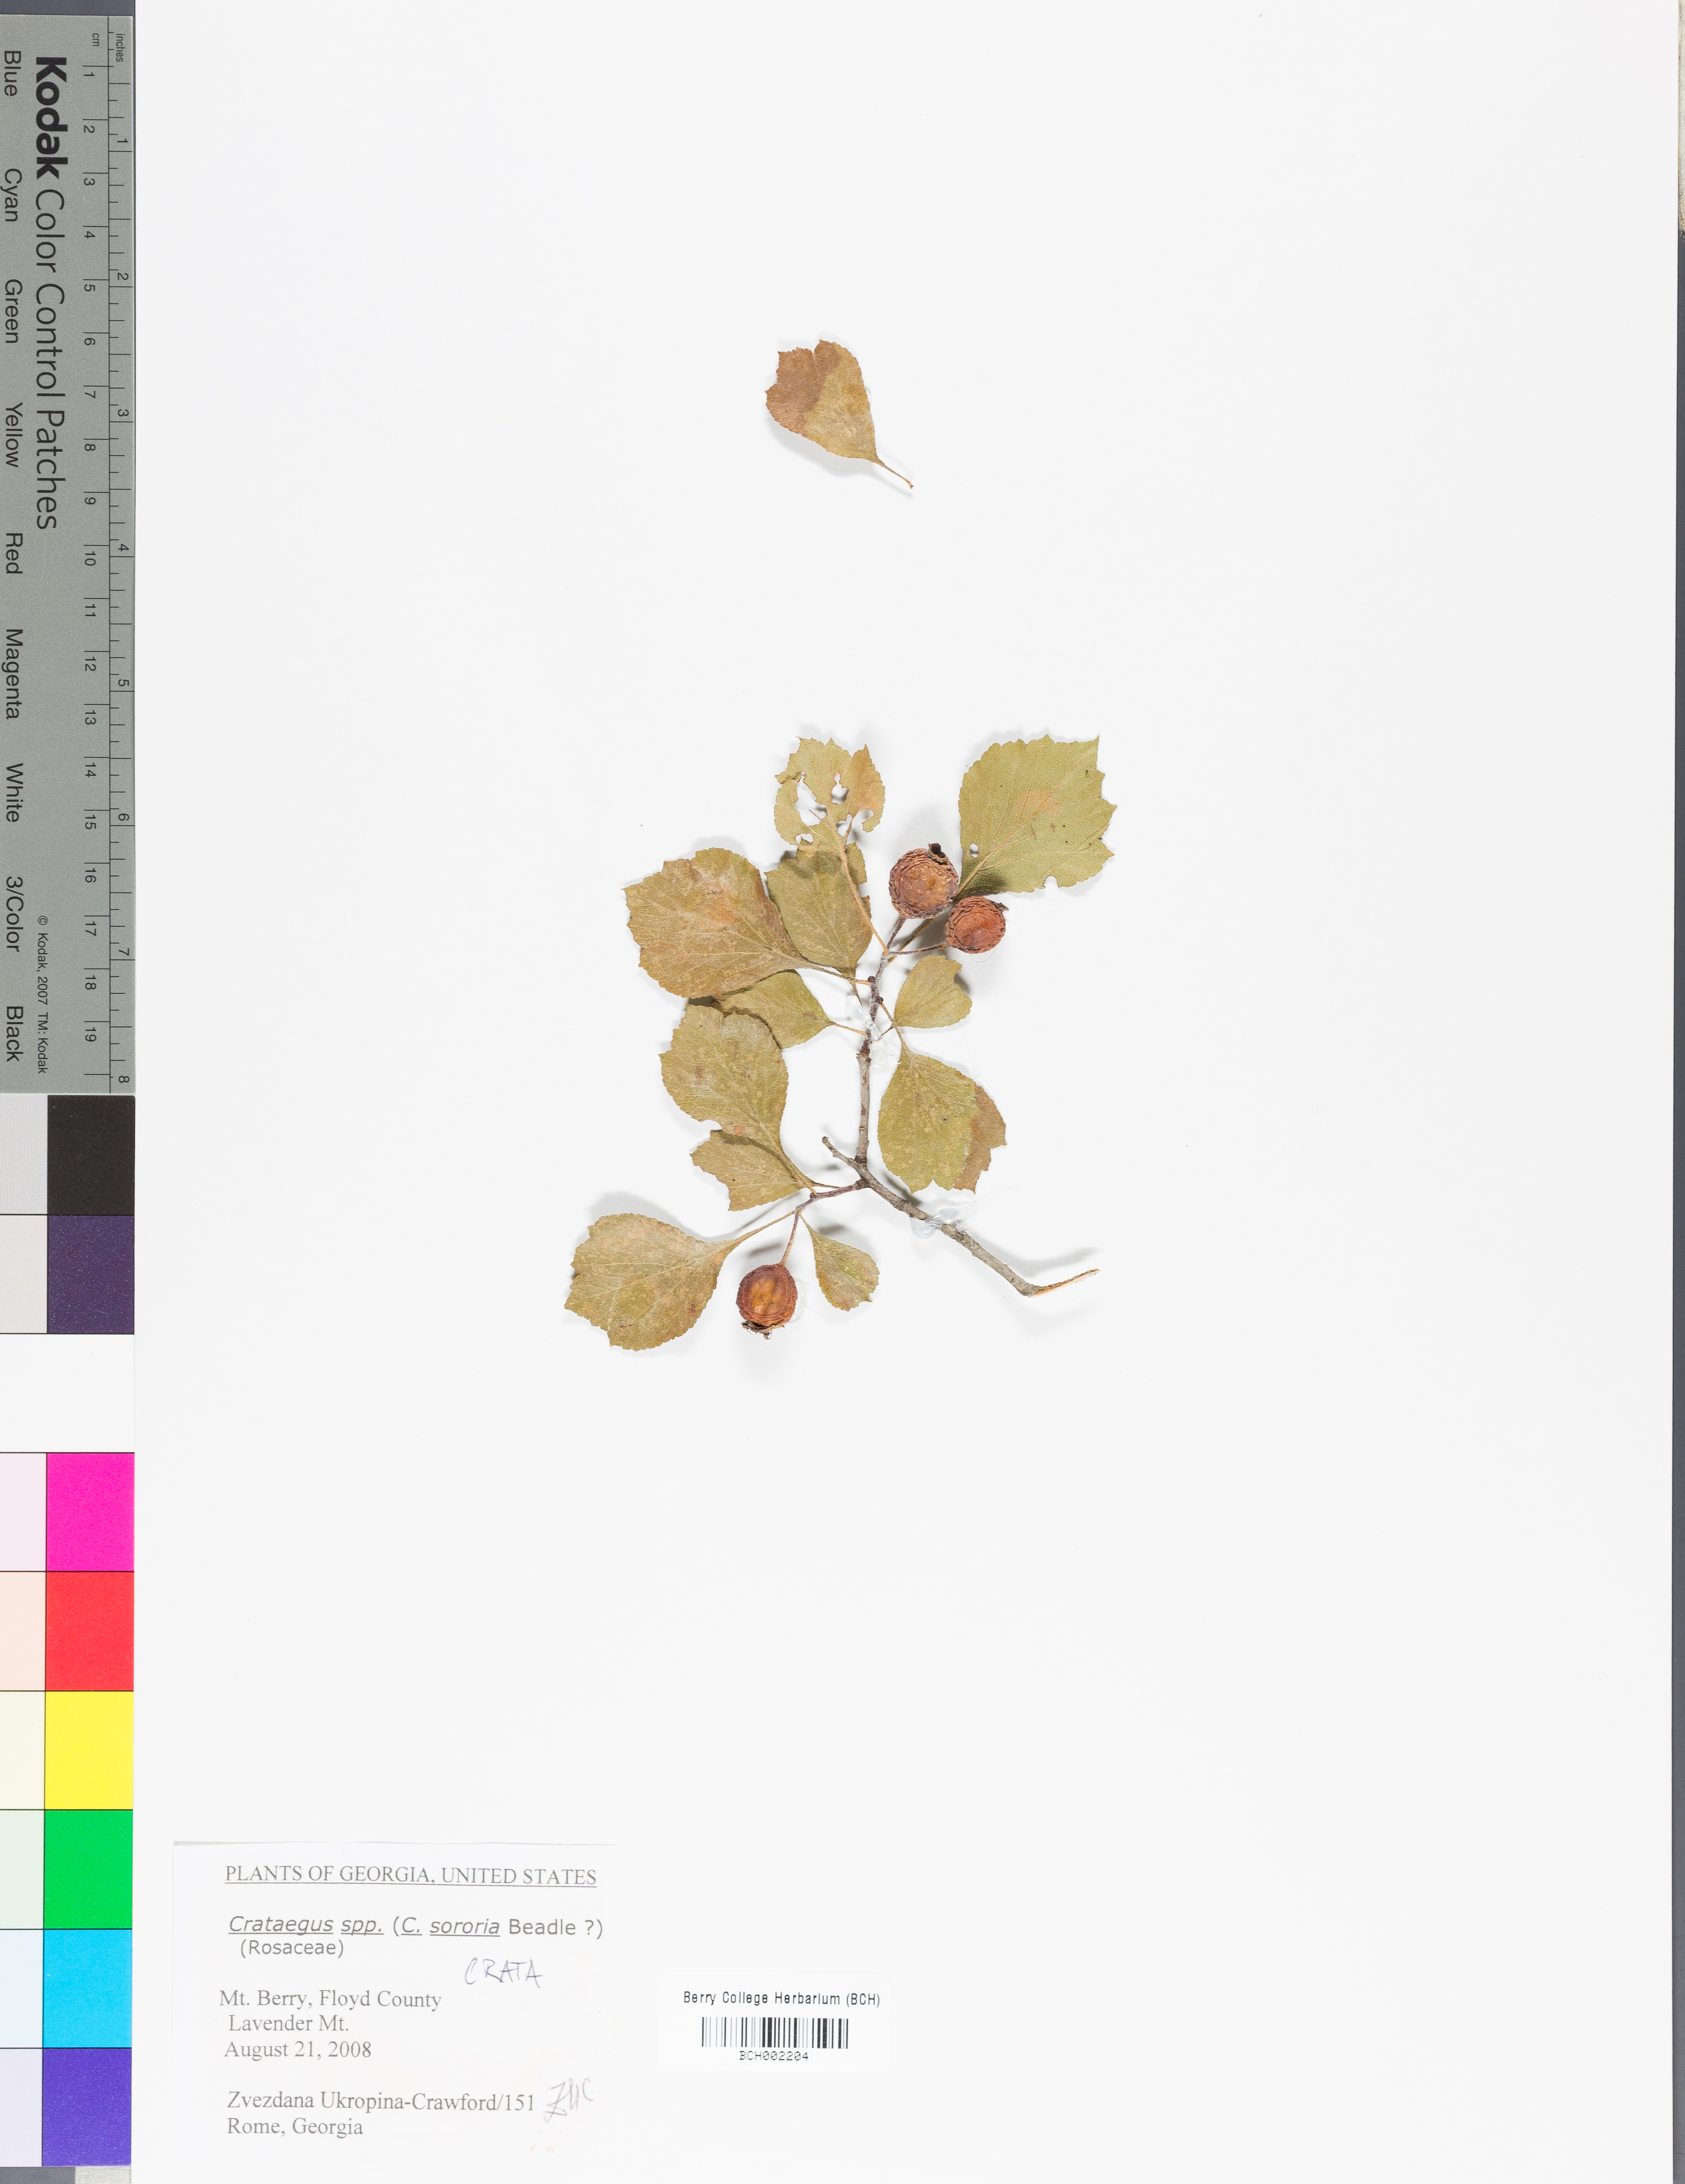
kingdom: Plantae
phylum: Tracheophyta
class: Magnoliopsida
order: Rosales
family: Rosaceae
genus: Crataegus
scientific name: Crataegus
